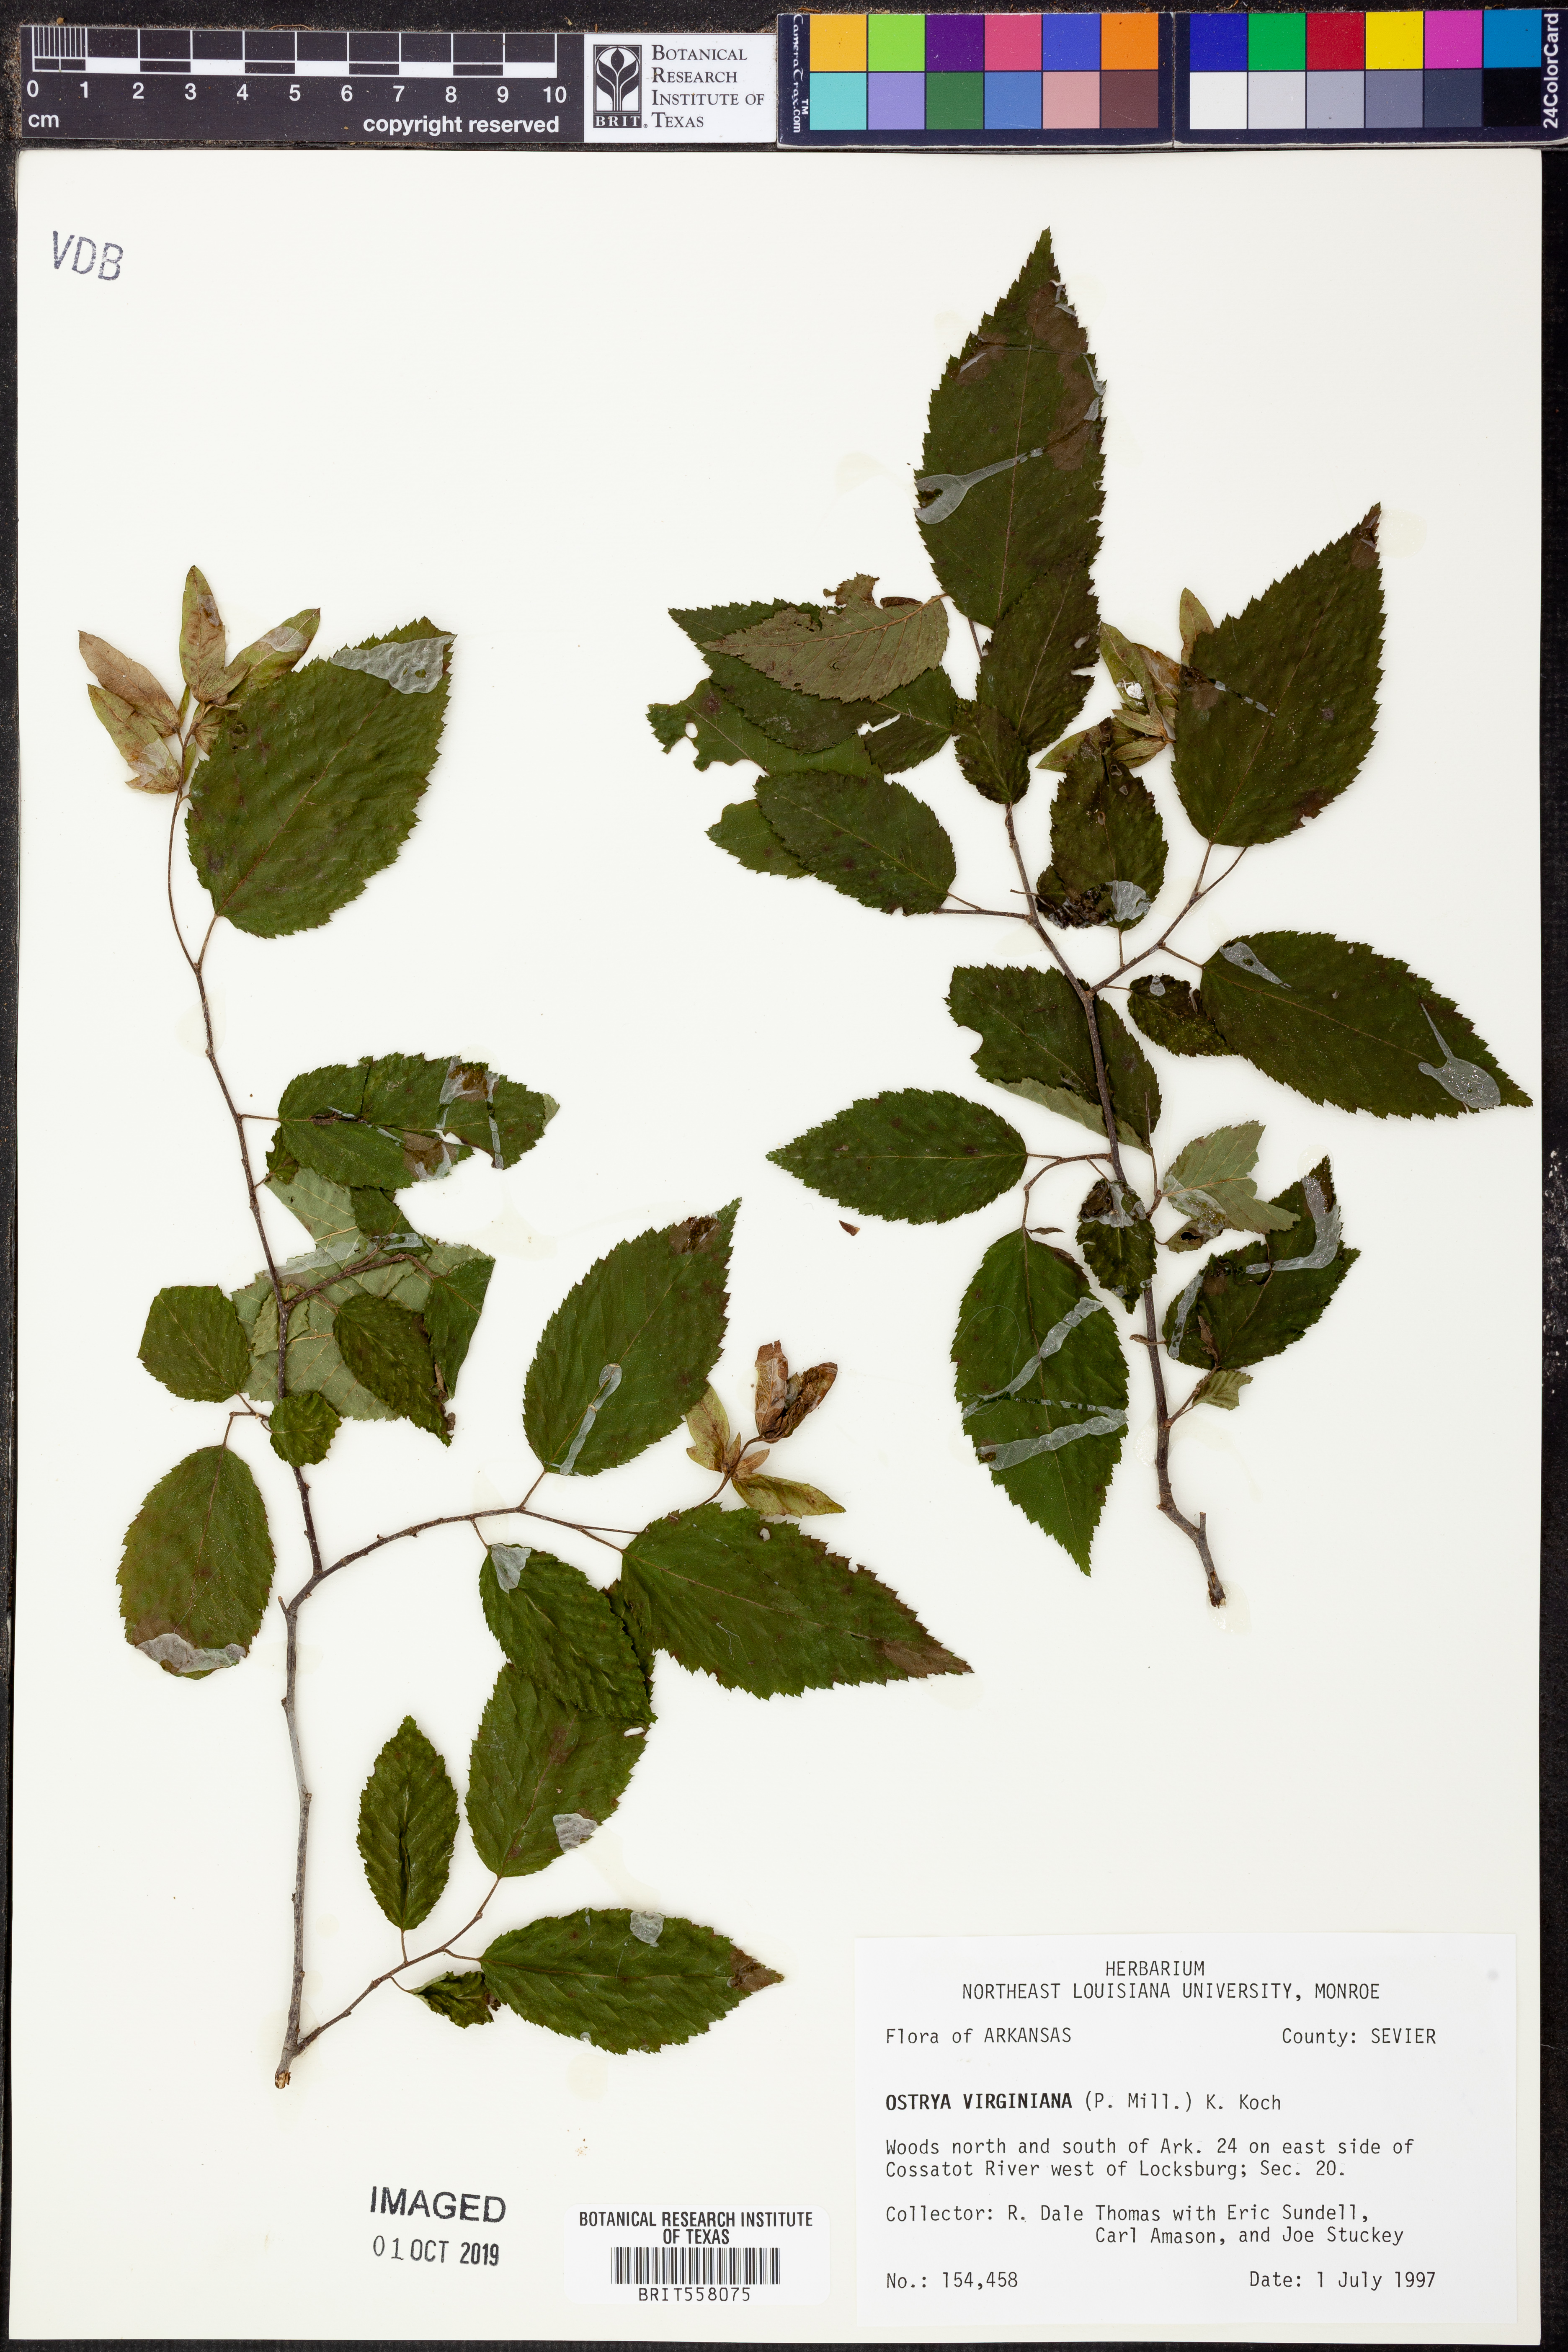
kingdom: Plantae
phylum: Tracheophyta
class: Magnoliopsida
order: Fagales
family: Betulaceae
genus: Ostrya
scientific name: Ostrya virginiana
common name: Ironwood
